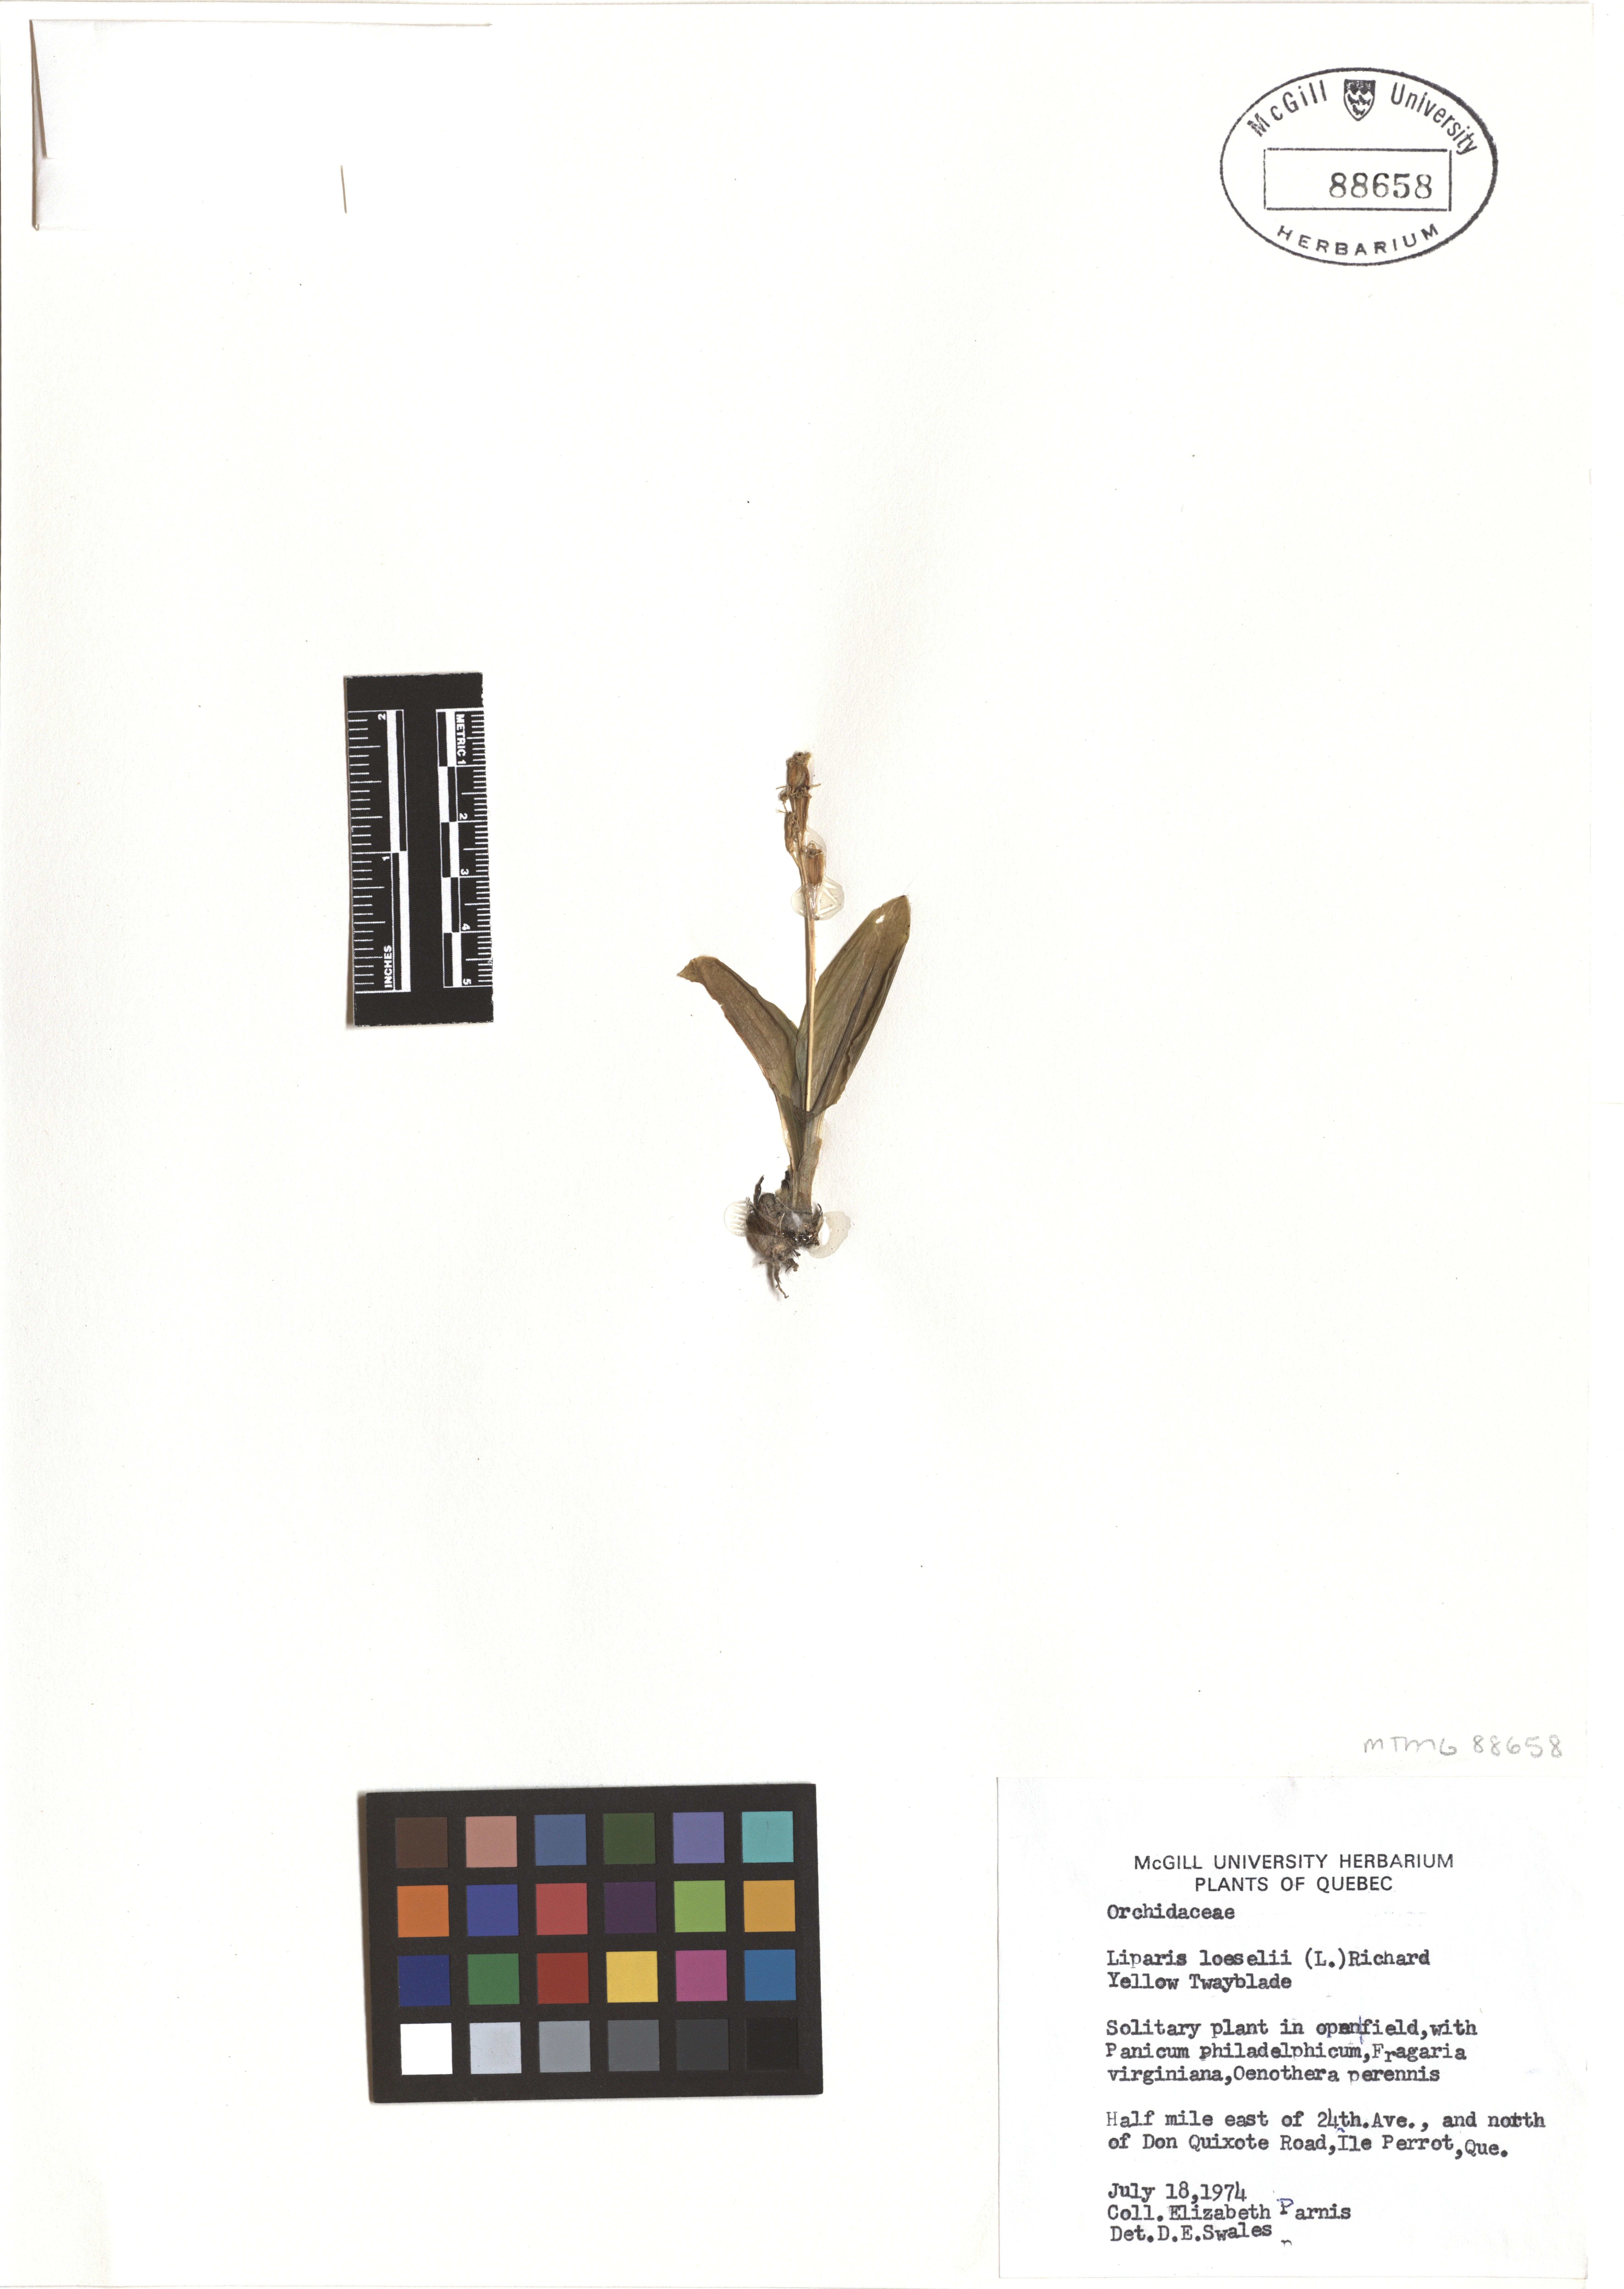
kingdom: Animalia
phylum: Arthropoda
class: Insecta
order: Coleoptera
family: Curculionidae
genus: Liparis
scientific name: Liparis loeselii
